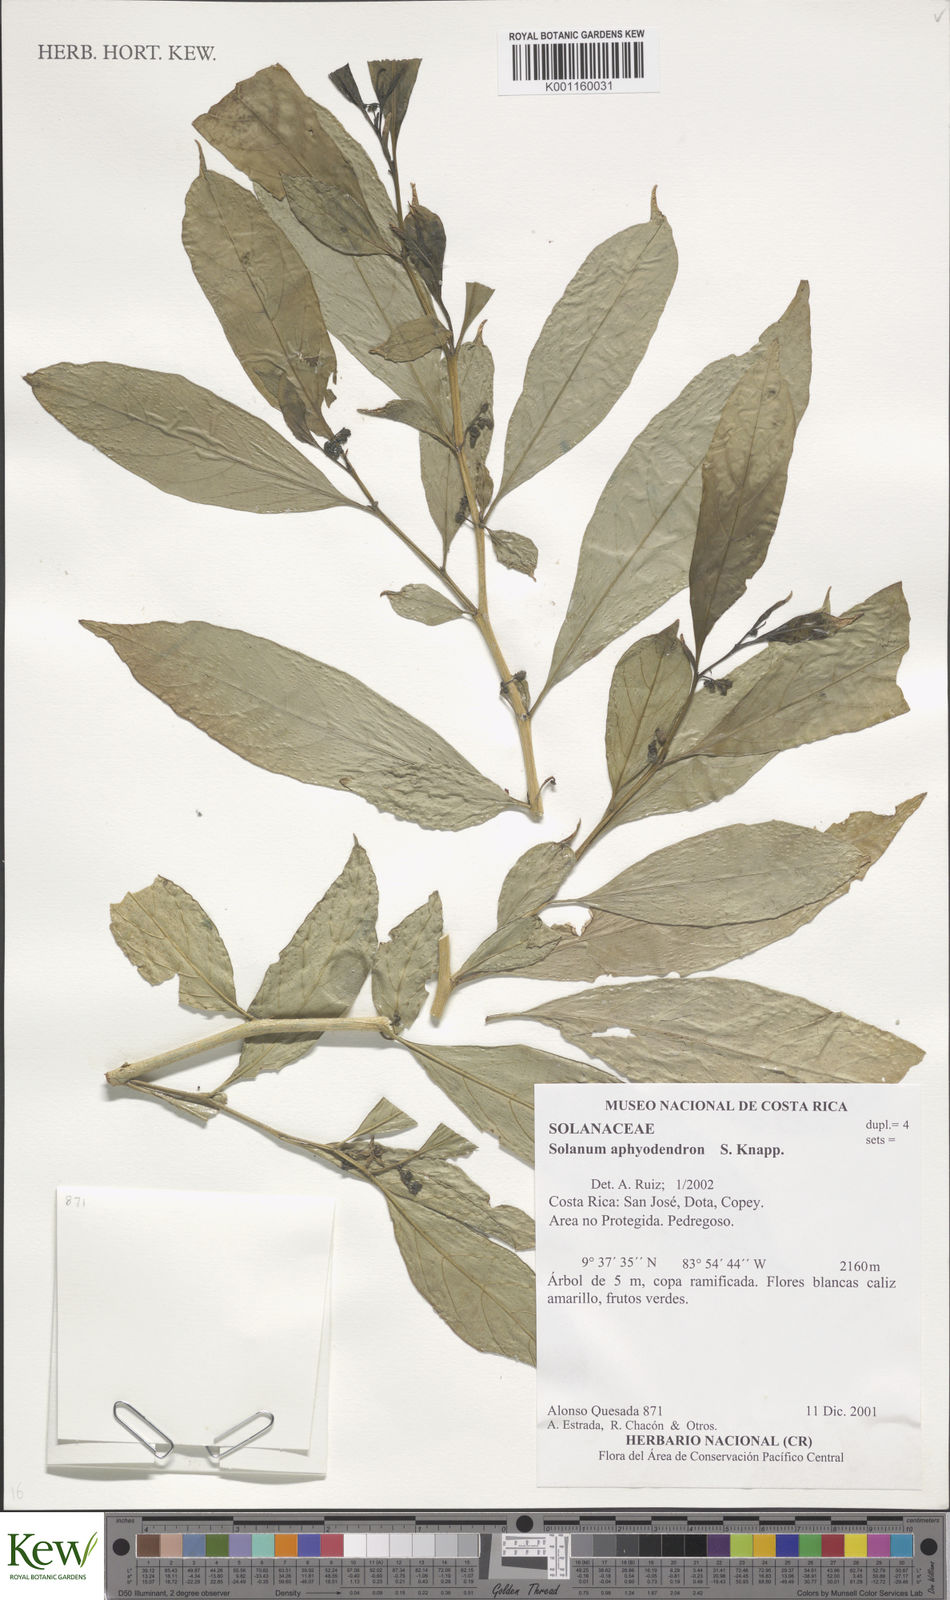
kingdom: Plantae
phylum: Tracheophyta
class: Magnoliopsida
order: Solanales
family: Solanaceae
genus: Solanum
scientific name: Solanum aphyodendron
